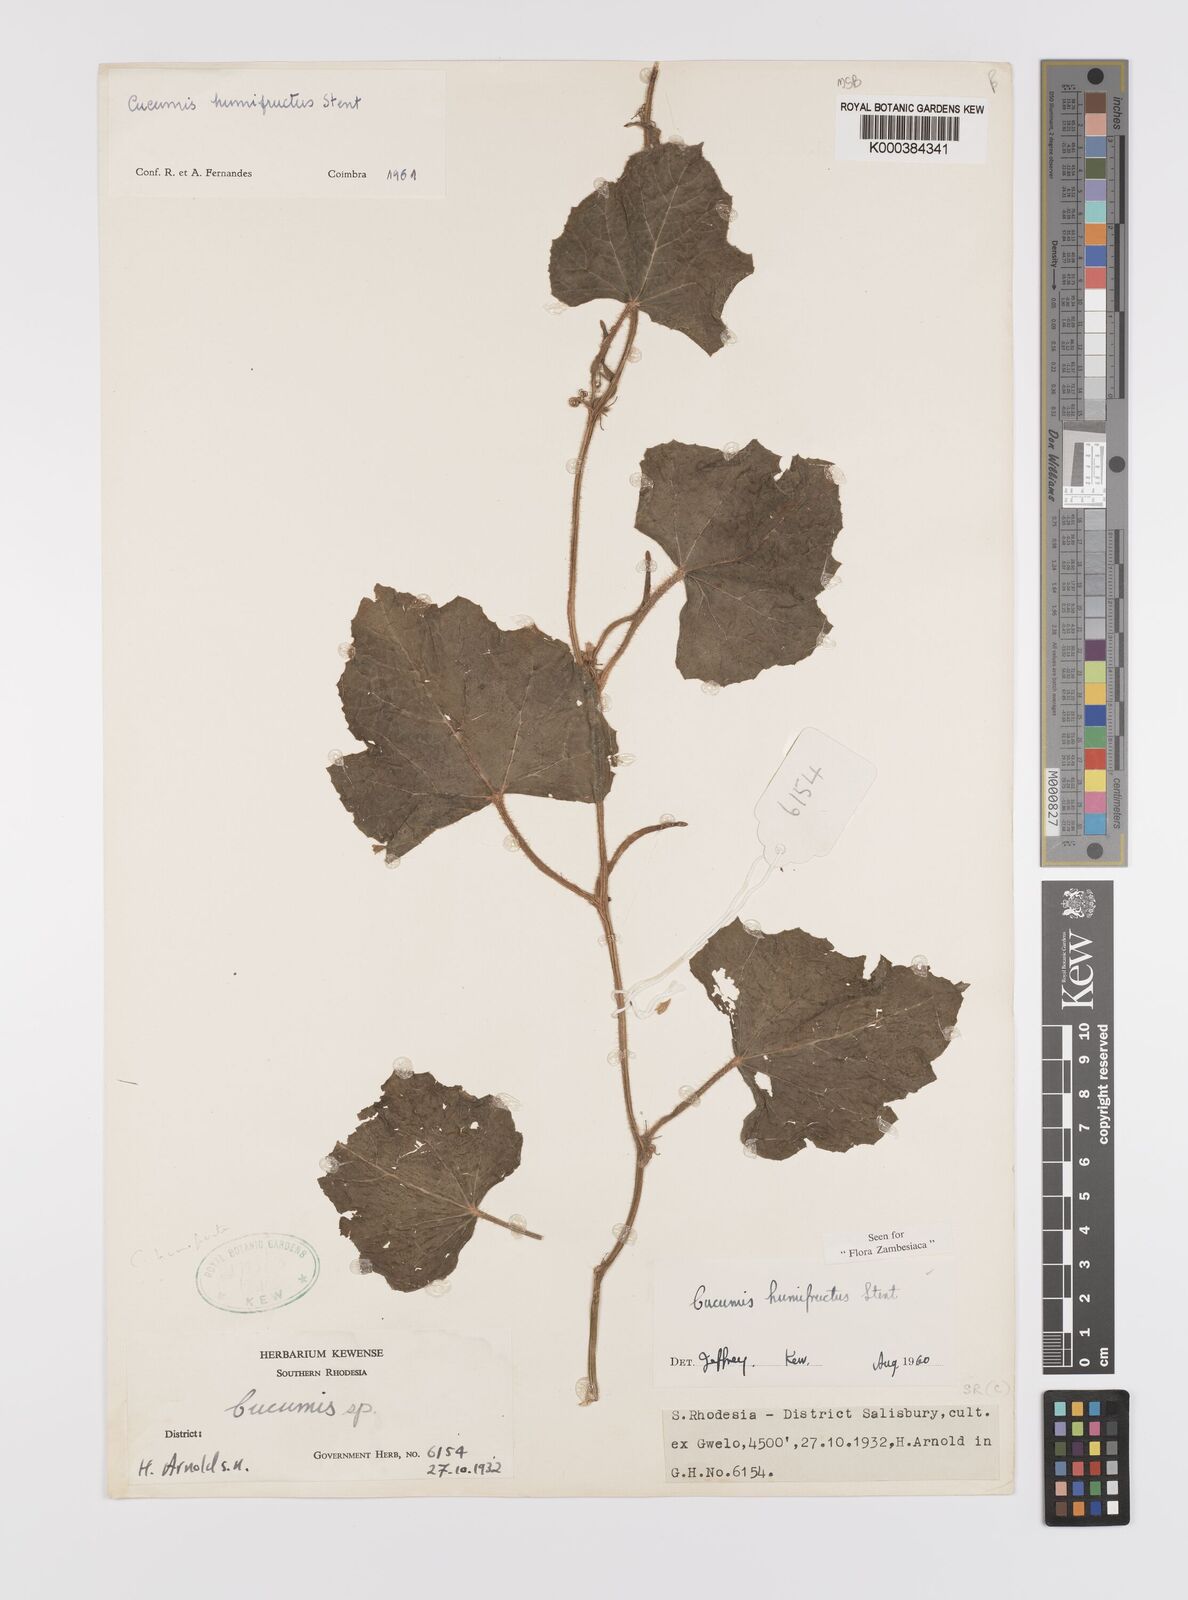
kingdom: Plantae
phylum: Tracheophyta
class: Magnoliopsida
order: Cucurbitales
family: Cucurbitaceae
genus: Cucumis
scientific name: Cucumis
